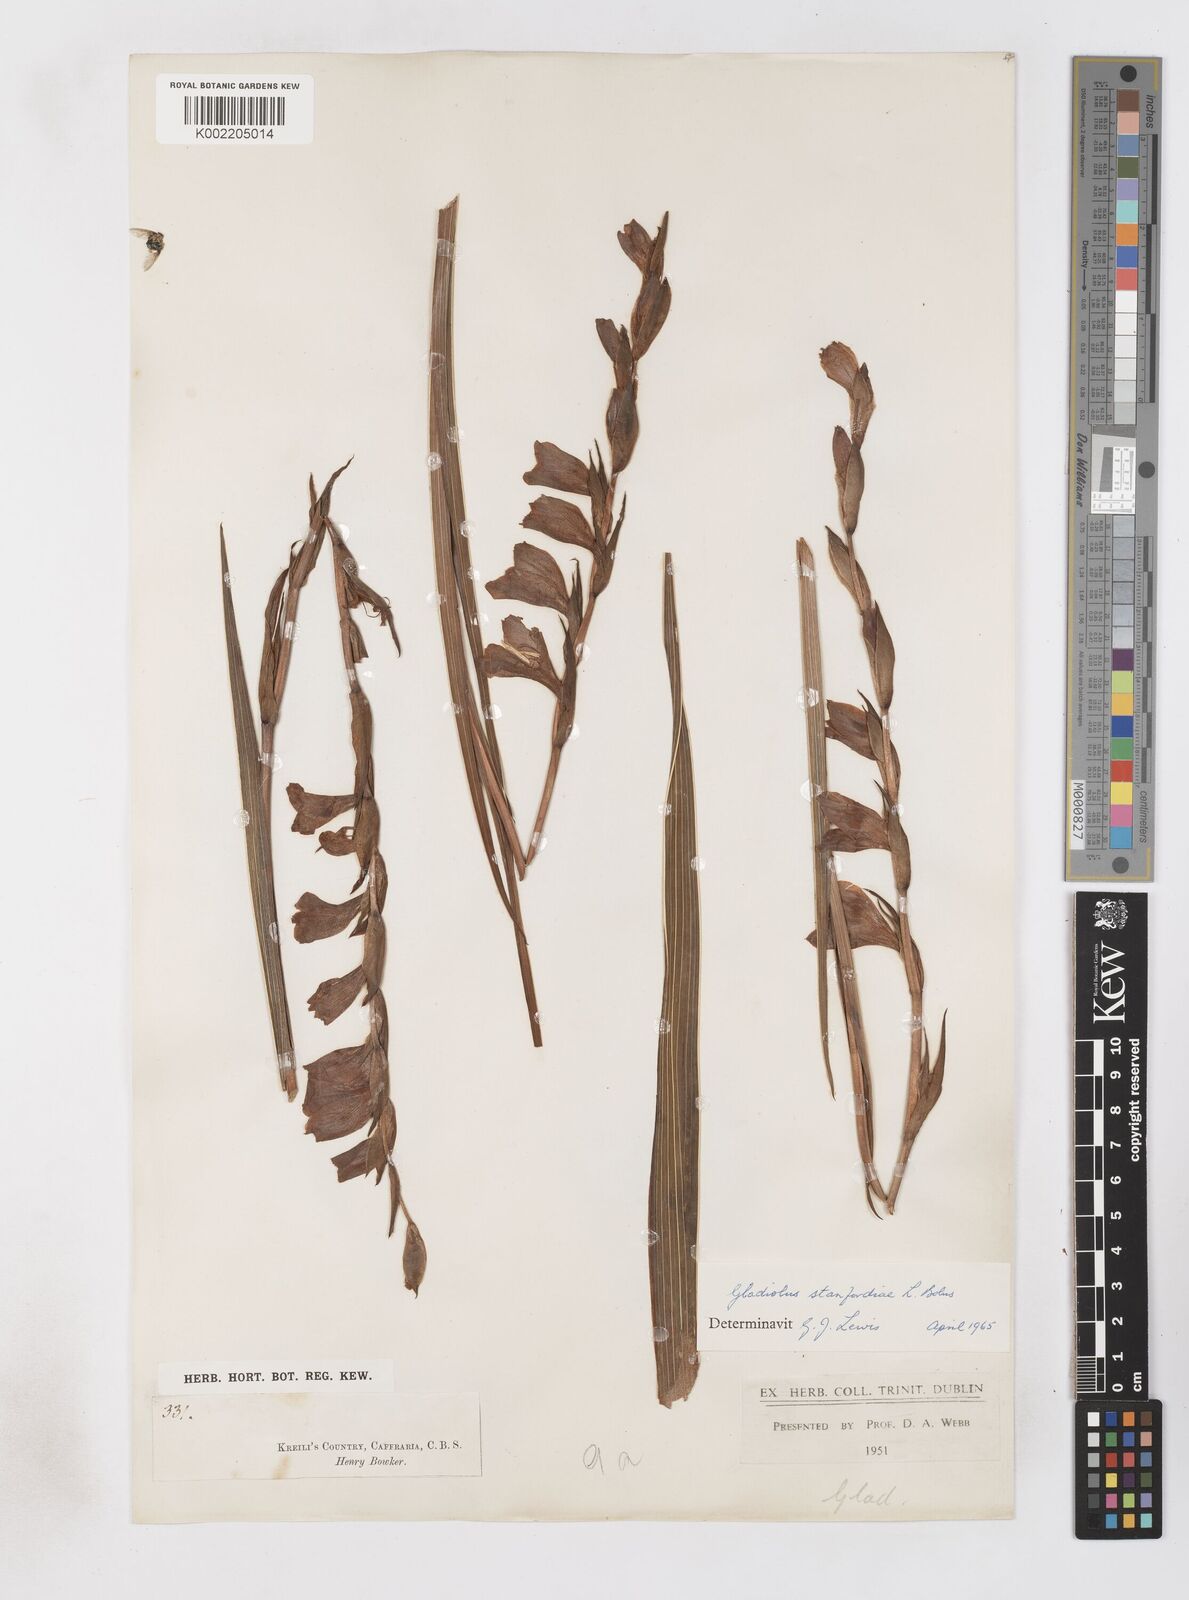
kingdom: Plantae
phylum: Tracheophyta
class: Liliopsida
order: Asparagales
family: Iridaceae
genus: Gladiolus
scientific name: Gladiolus ochroleucus
